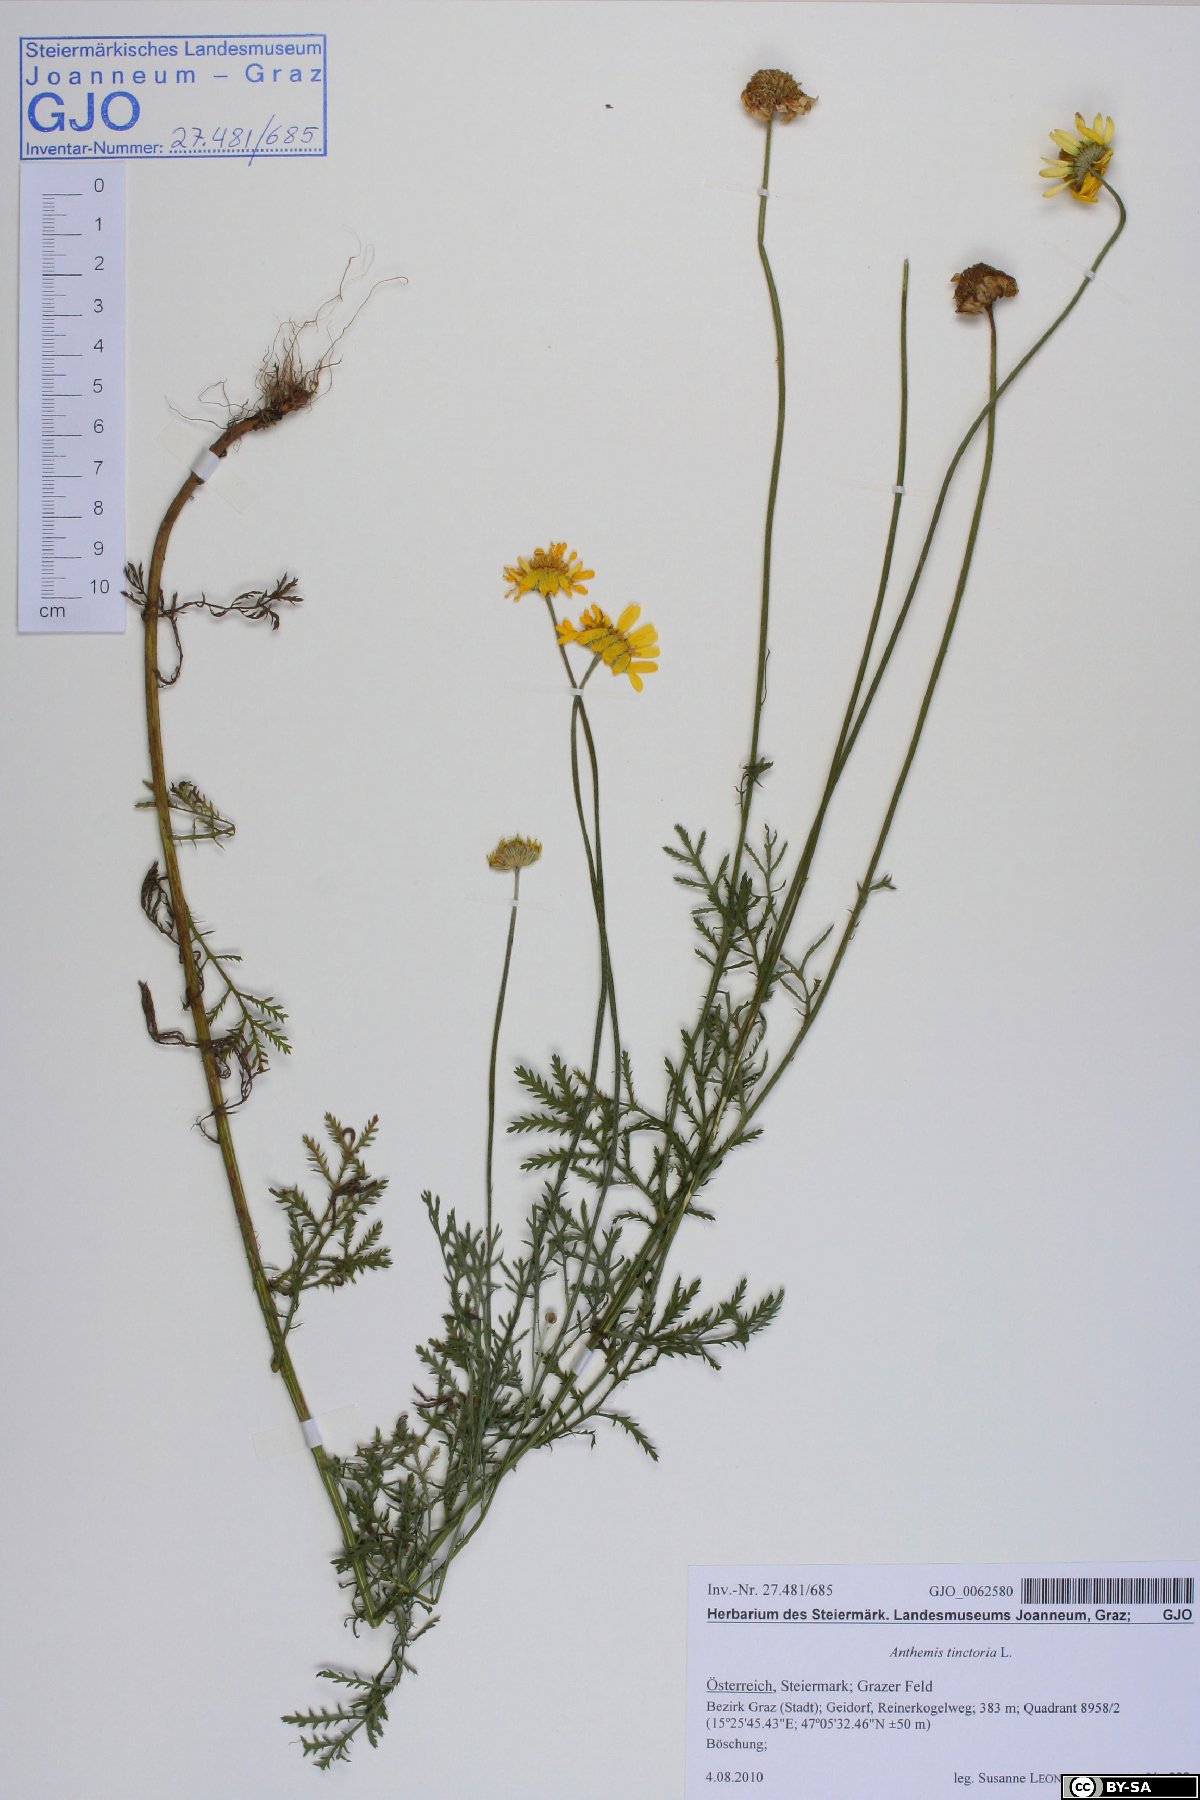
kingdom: Plantae
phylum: Tracheophyta
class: Magnoliopsida
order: Asterales
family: Asteraceae
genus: Cota
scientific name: Cota tinctoria
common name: Golden chamomile
